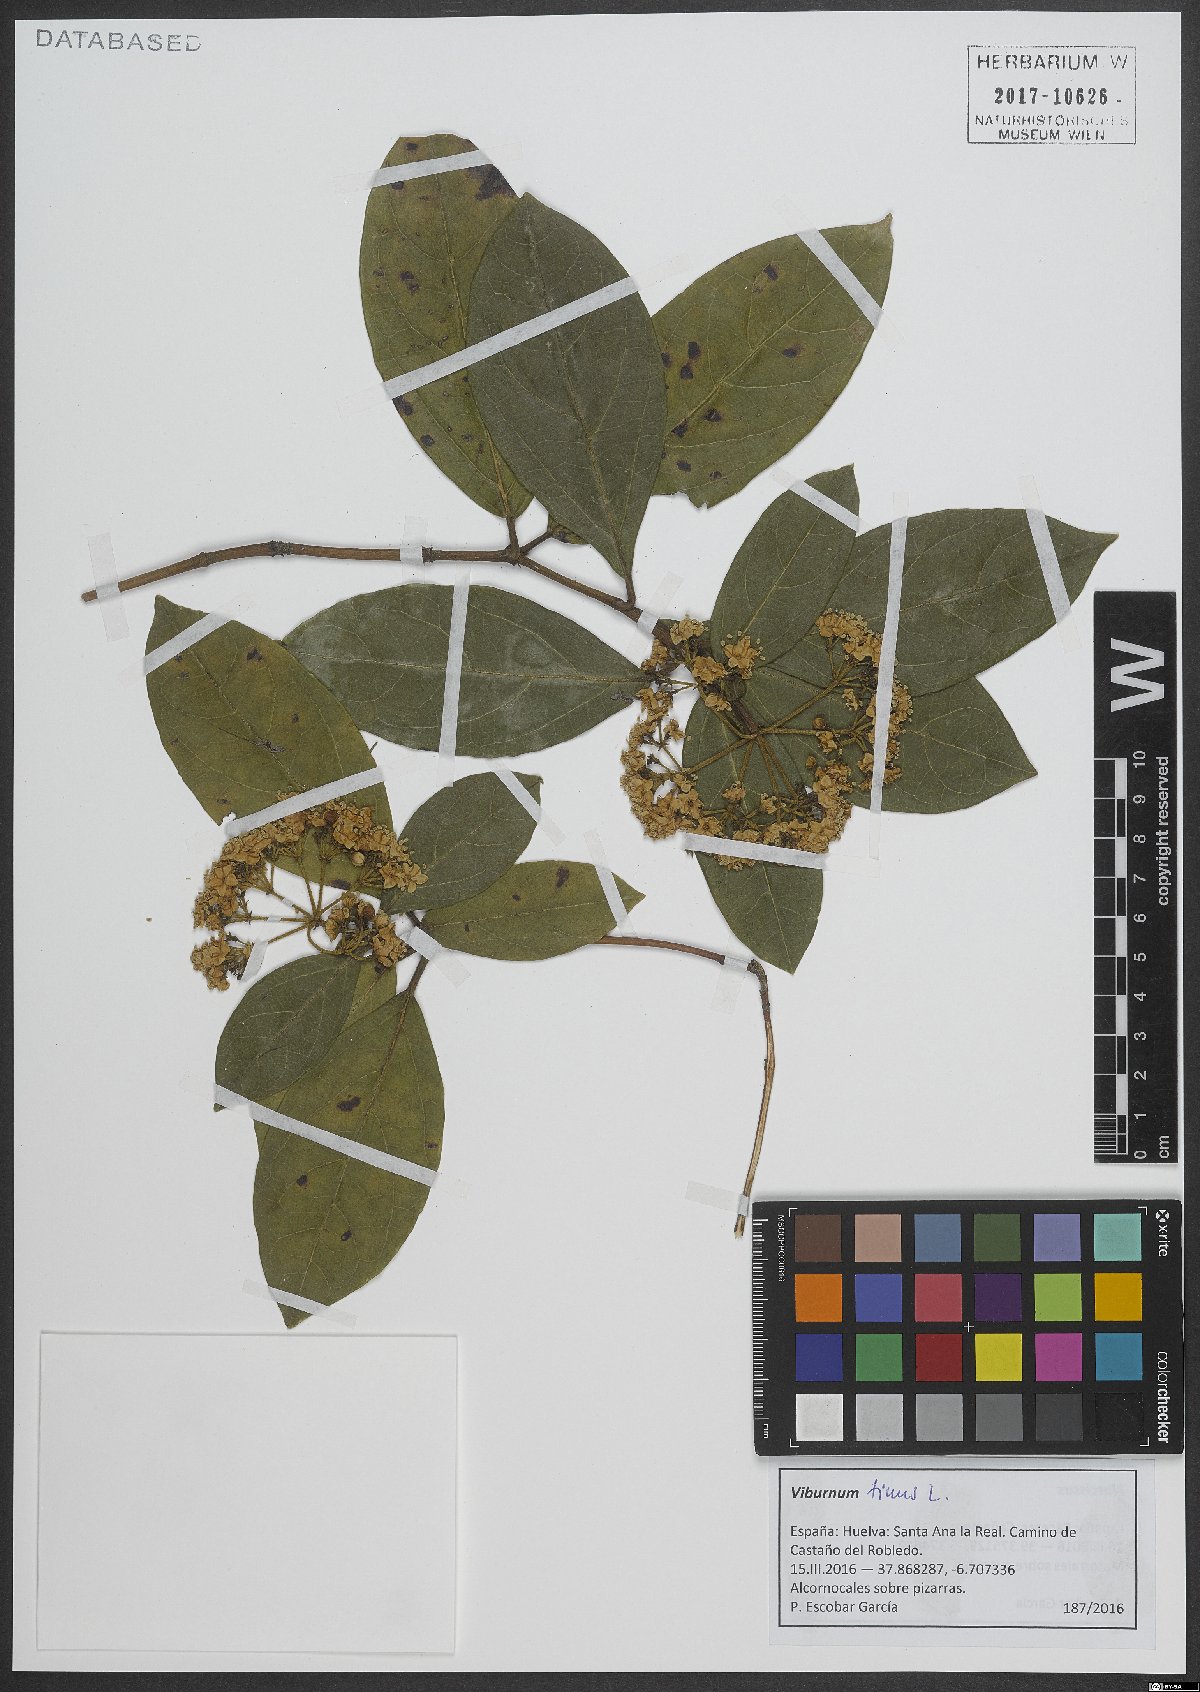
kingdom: Plantae
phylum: Tracheophyta
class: Magnoliopsida
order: Dipsacales
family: Viburnaceae
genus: Viburnum
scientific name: Viburnum tinus
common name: Laurustinus
